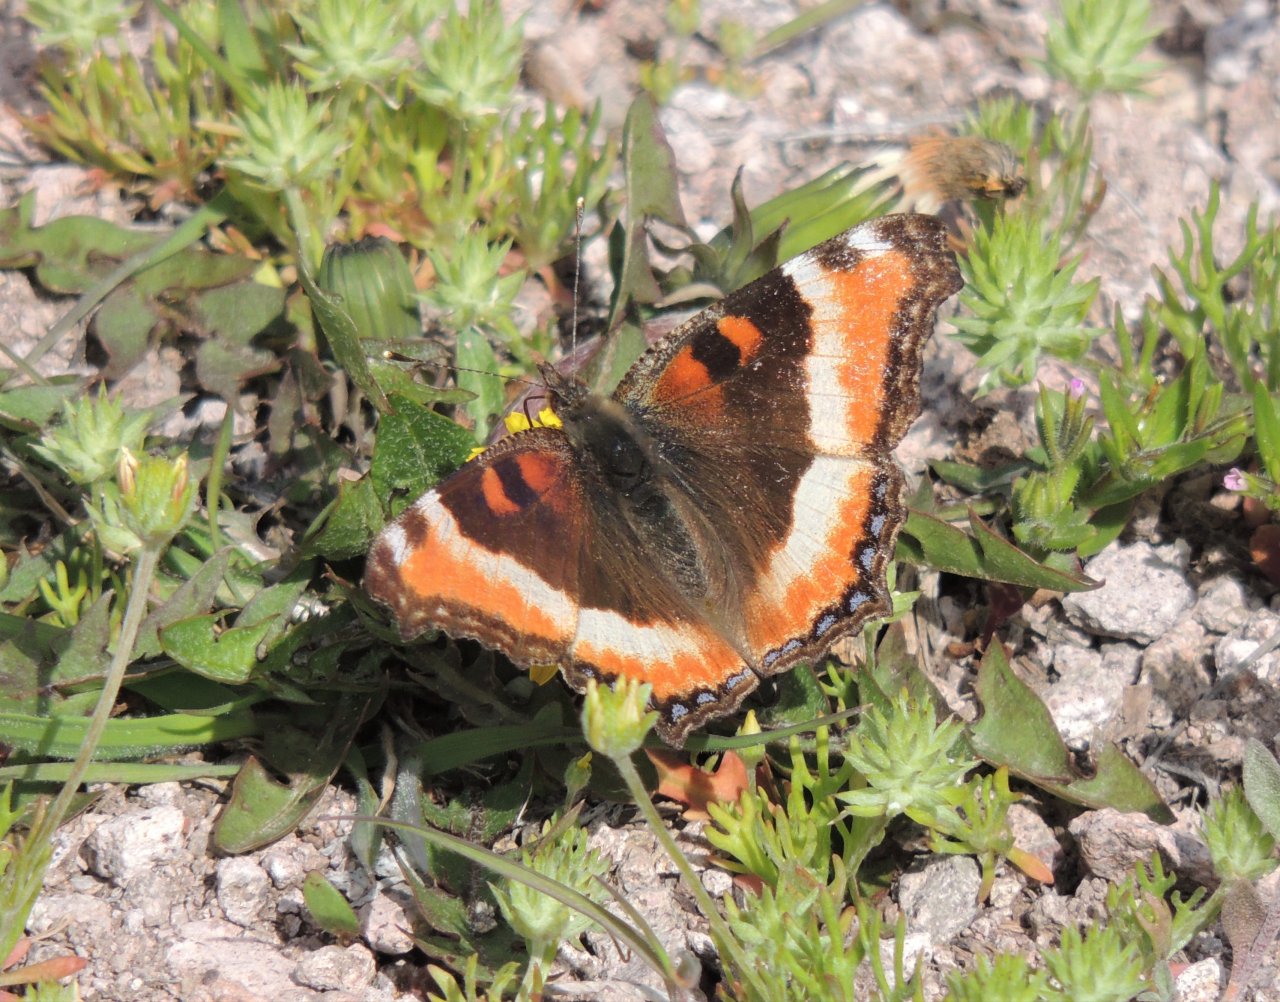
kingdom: Animalia
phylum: Arthropoda
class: Insecta
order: Lepidoptera
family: Nymphalidae
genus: Aglais
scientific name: Aglais milberti
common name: Milbert's Tortoiseshell
